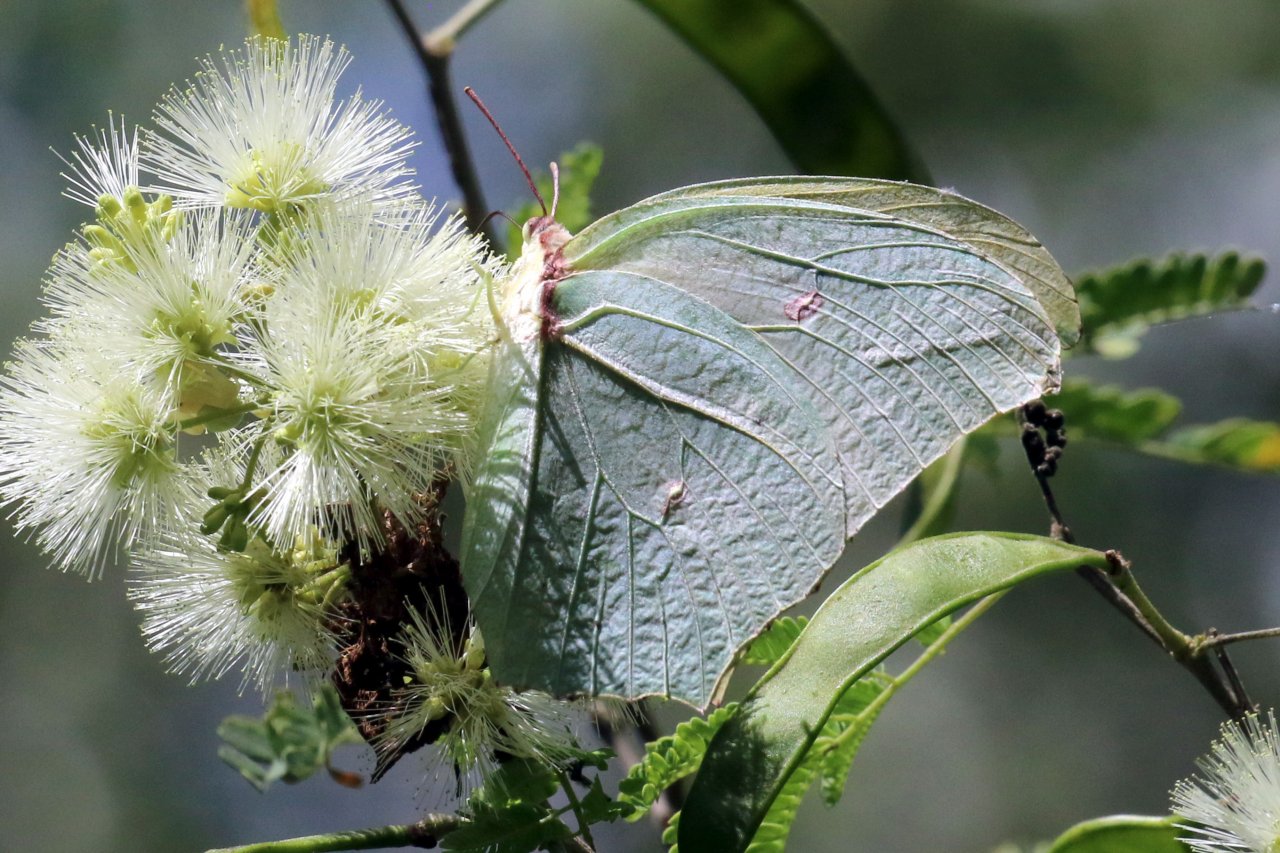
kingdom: Animalia
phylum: Arthropoda
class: Insecta
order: Lepidoptera
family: Pieridae
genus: Anteos
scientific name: Anteos maerula
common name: Yellow Angled-Sulphur
